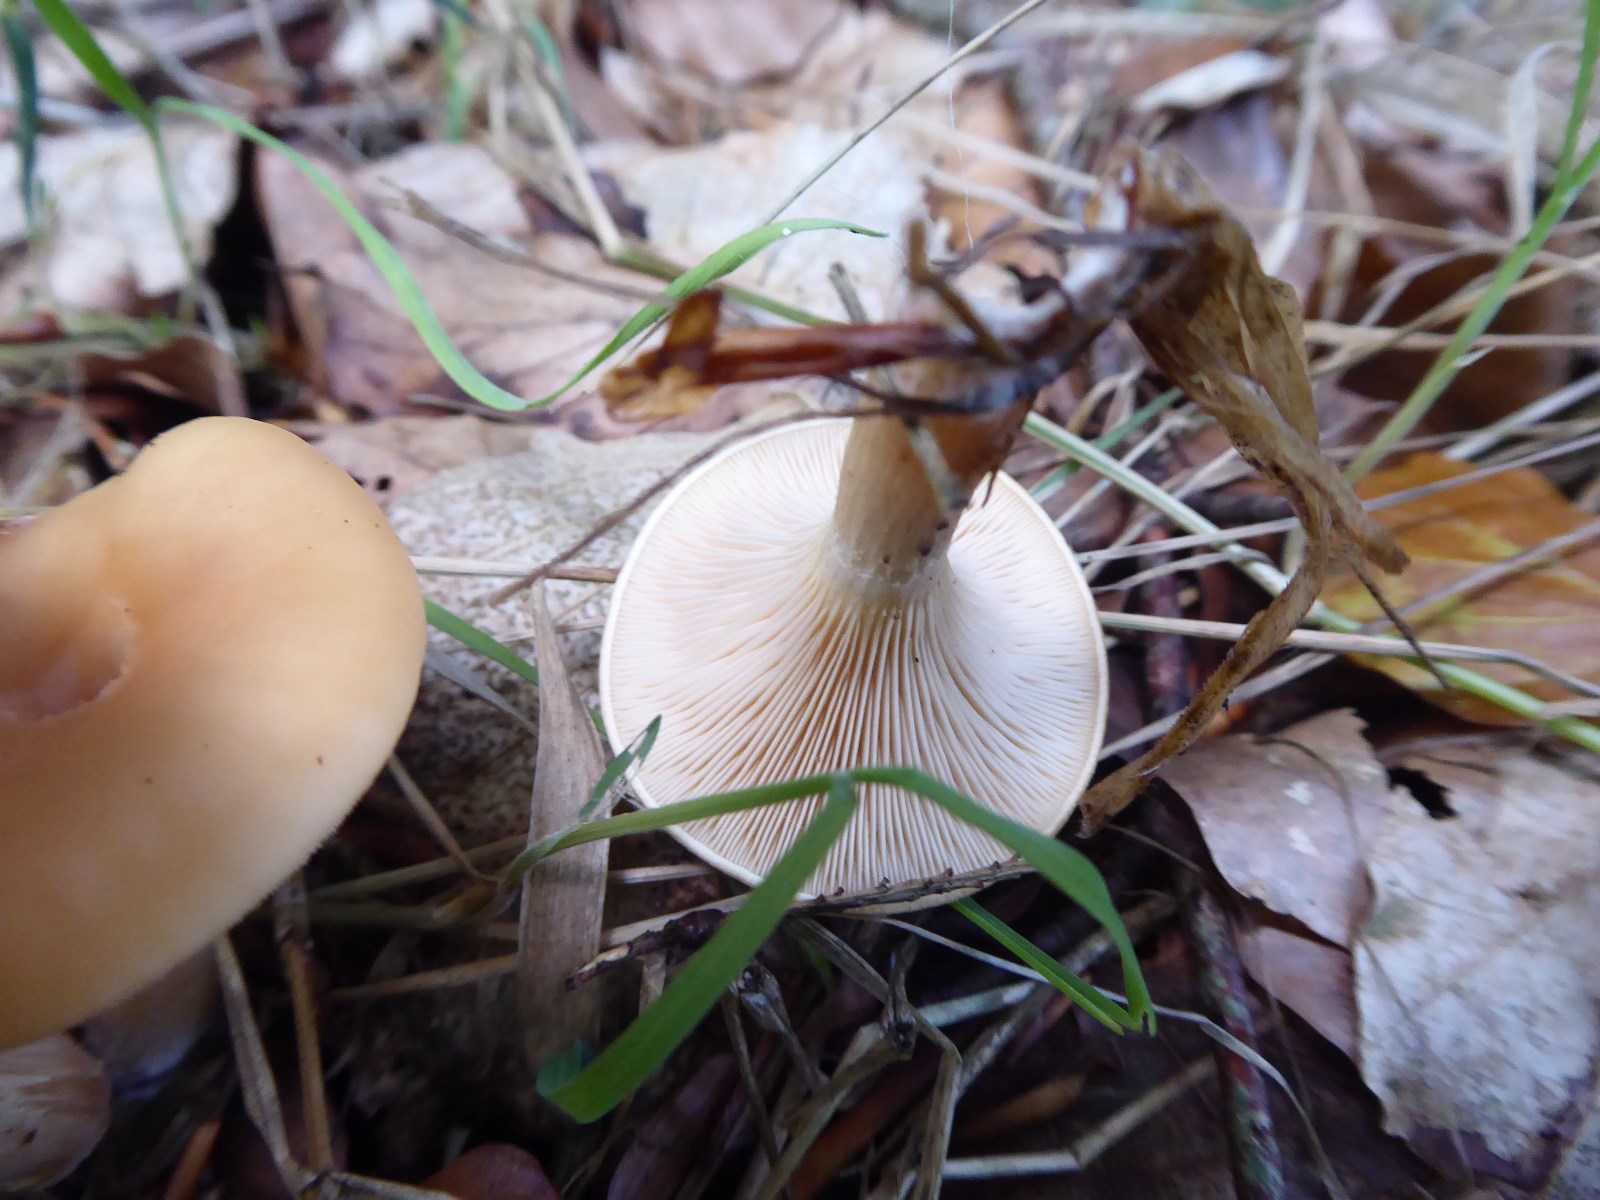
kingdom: Fungi
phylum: Basidiomycota
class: Agaricomycetes
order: Agaricales
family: Tricholomataceae
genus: Paralepista
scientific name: Paralepista flaccida
